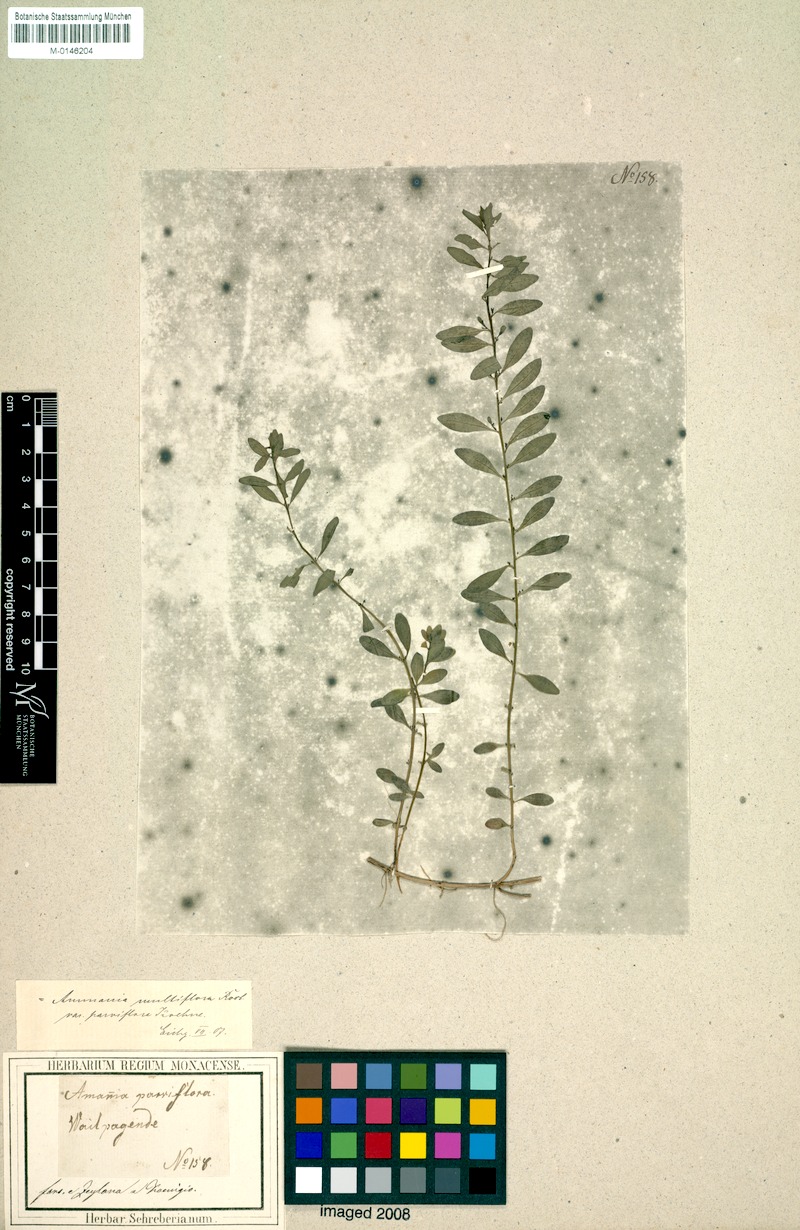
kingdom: Plantae
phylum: Tracheophyta
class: Magnoliopsida
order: Myrtales
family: Lythraceae
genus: Ammannia
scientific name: Ammannia auriculata
